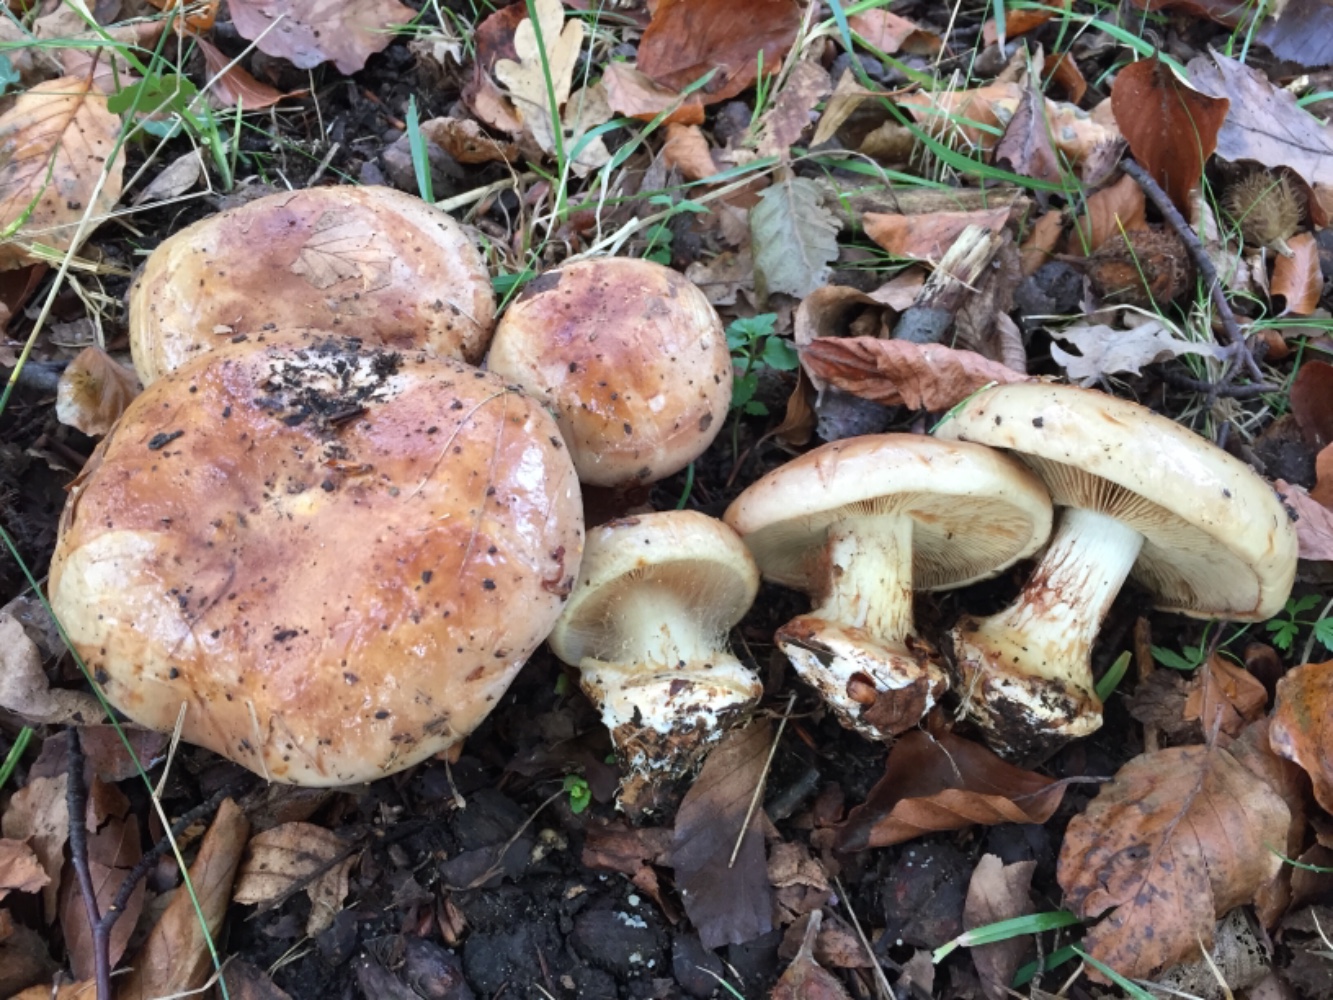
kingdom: Fungi
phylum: Basidiomycota
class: Agaricomycetes
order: Agaricales
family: Cortinariaceae
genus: Calonarius
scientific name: Calonarius humolens
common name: radise-slørhat
